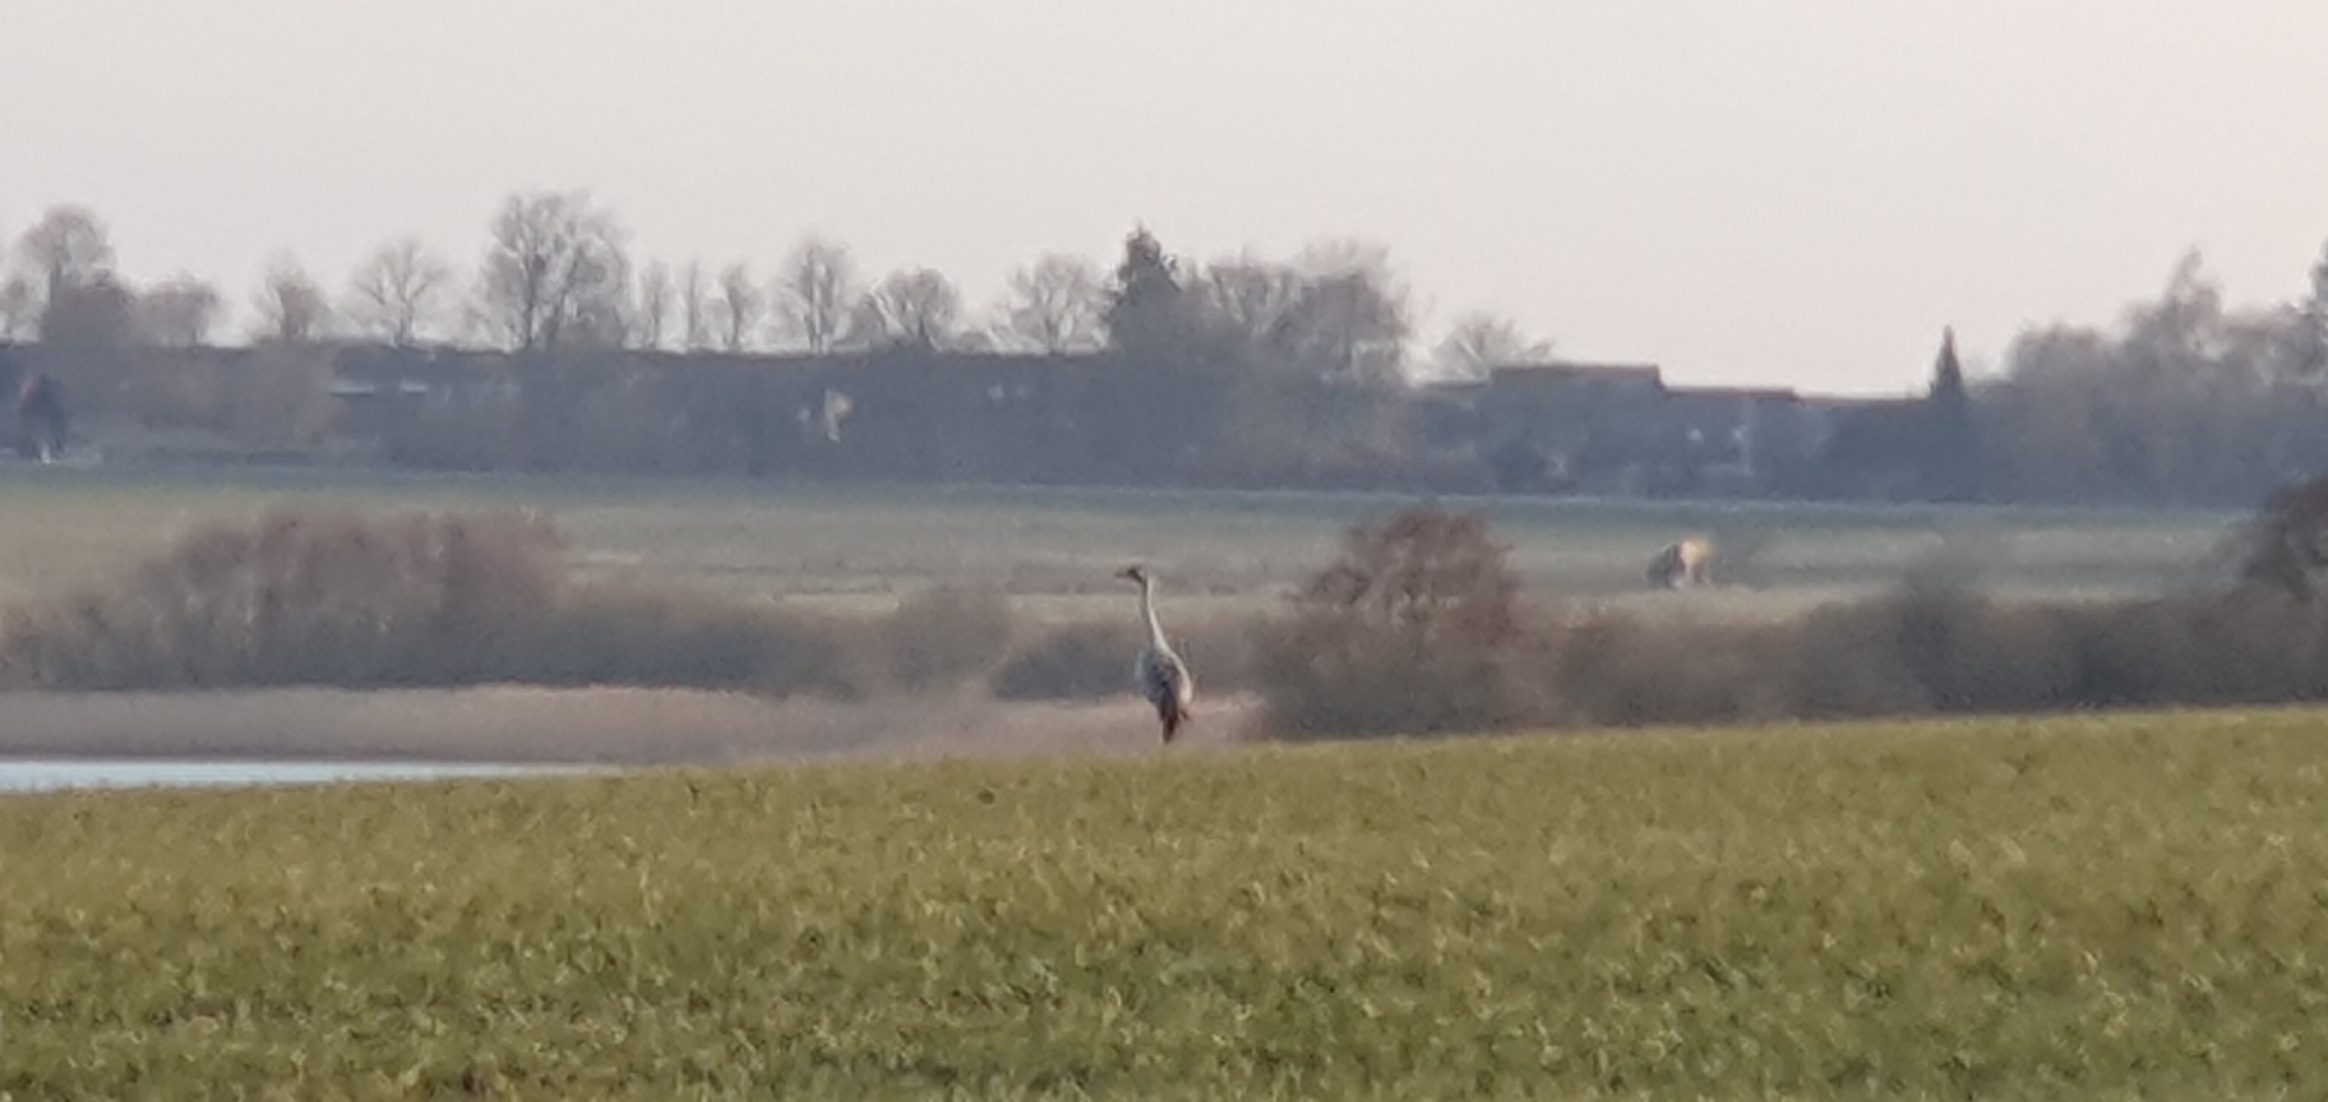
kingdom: Animalia
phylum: Chordata
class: Aves
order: Gruiformes
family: Gruidae
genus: Grus
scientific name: Grus grus
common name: Trane
